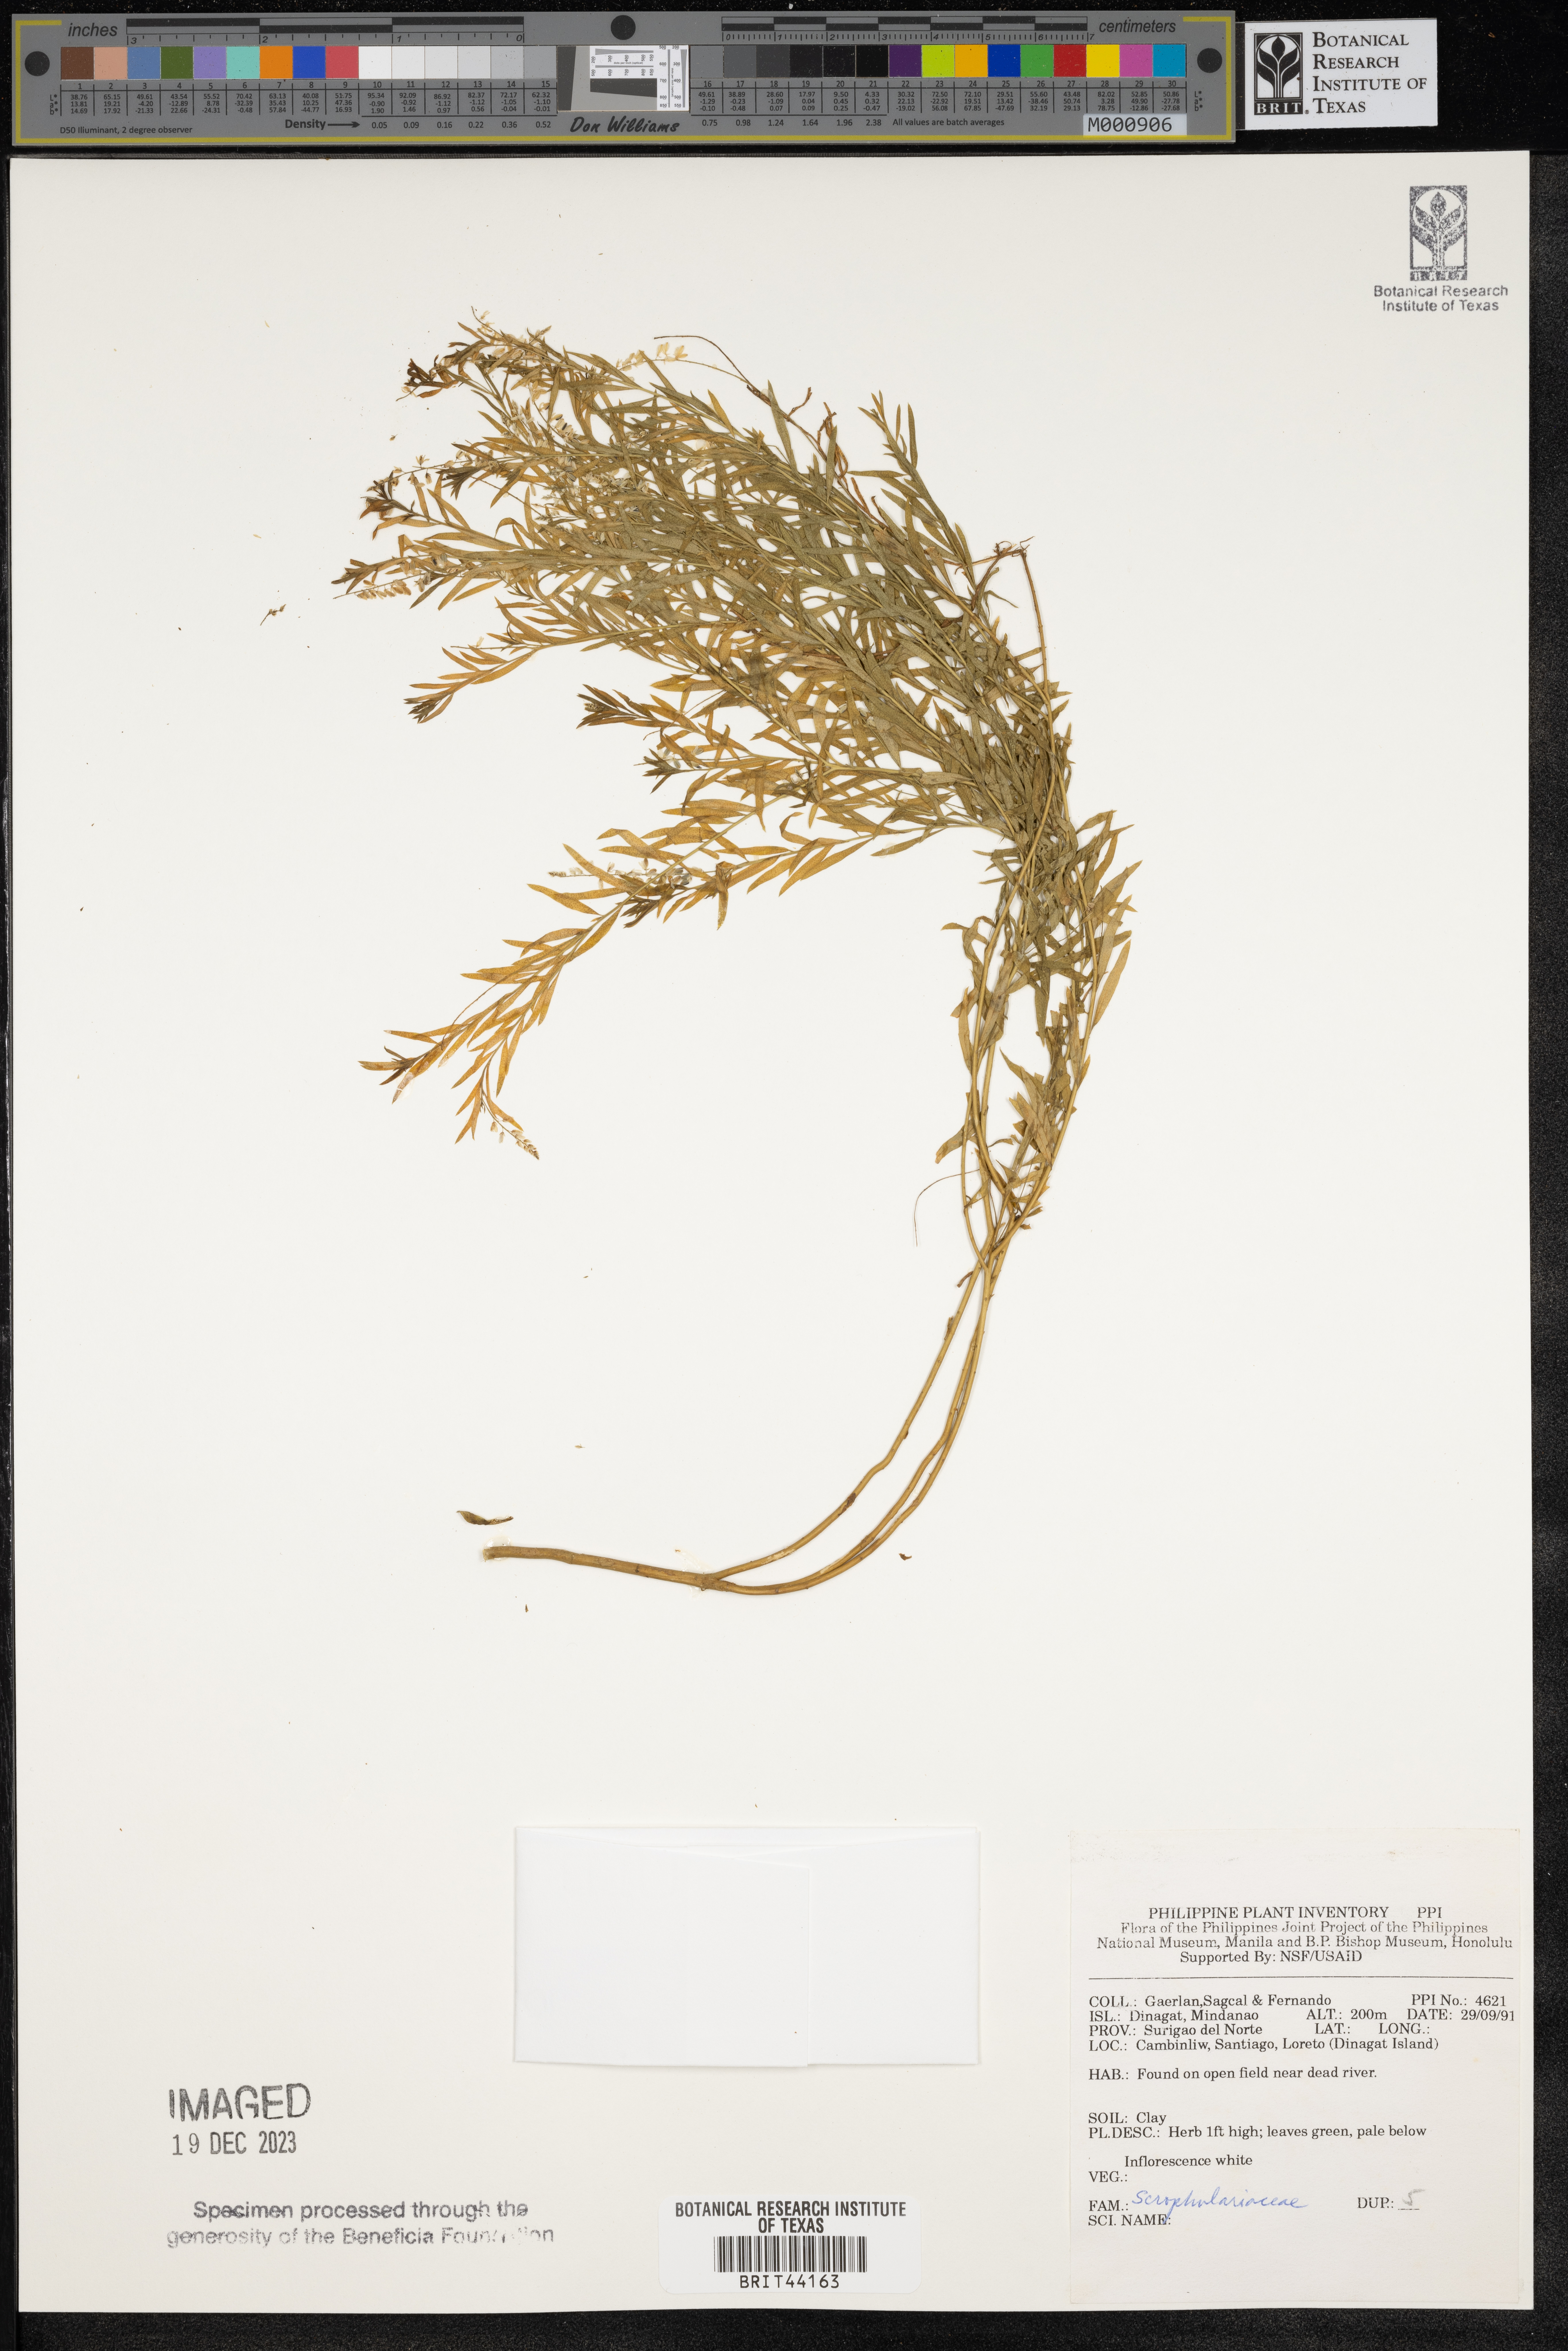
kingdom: Plantae
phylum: Tracheophyta
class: Magnoliopsida
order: Lamiales
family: Scrophulariaceae
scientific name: Scrophulariaceae
